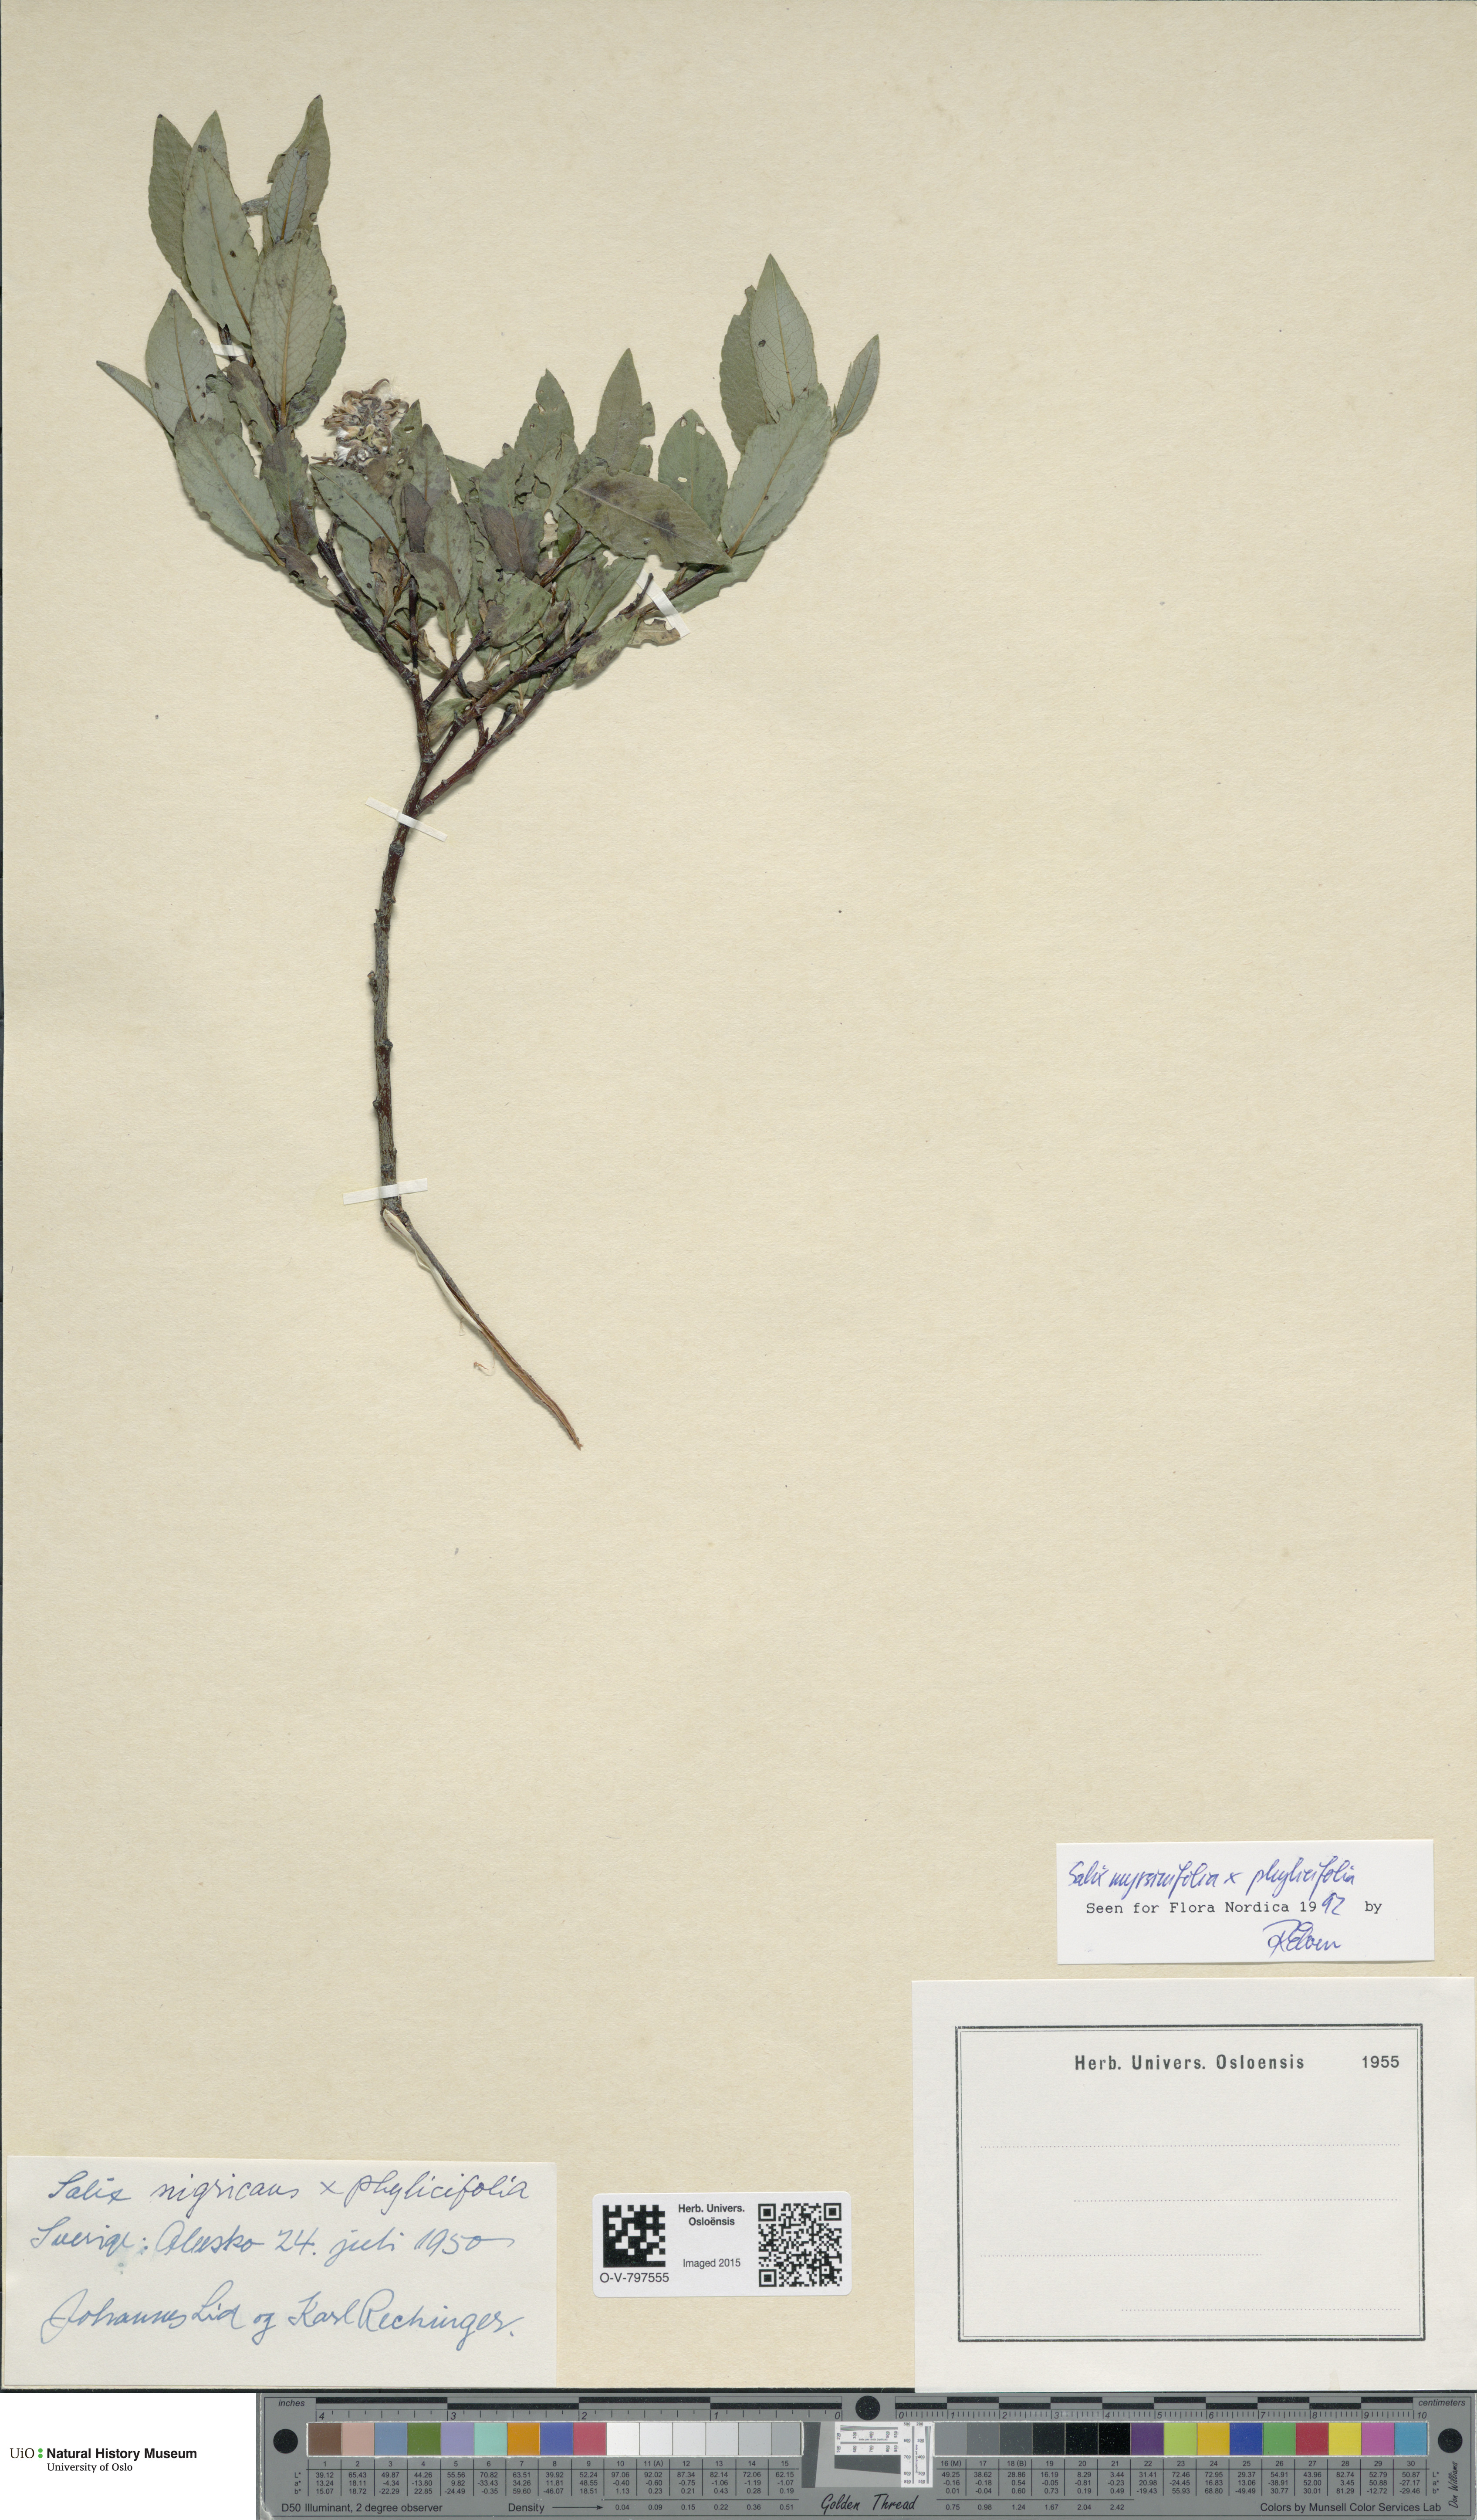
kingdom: Plantae
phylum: Tracheophyta
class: Magnoliopsida
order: Malpighiales
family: Salicaceae
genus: Salix
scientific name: Salix
